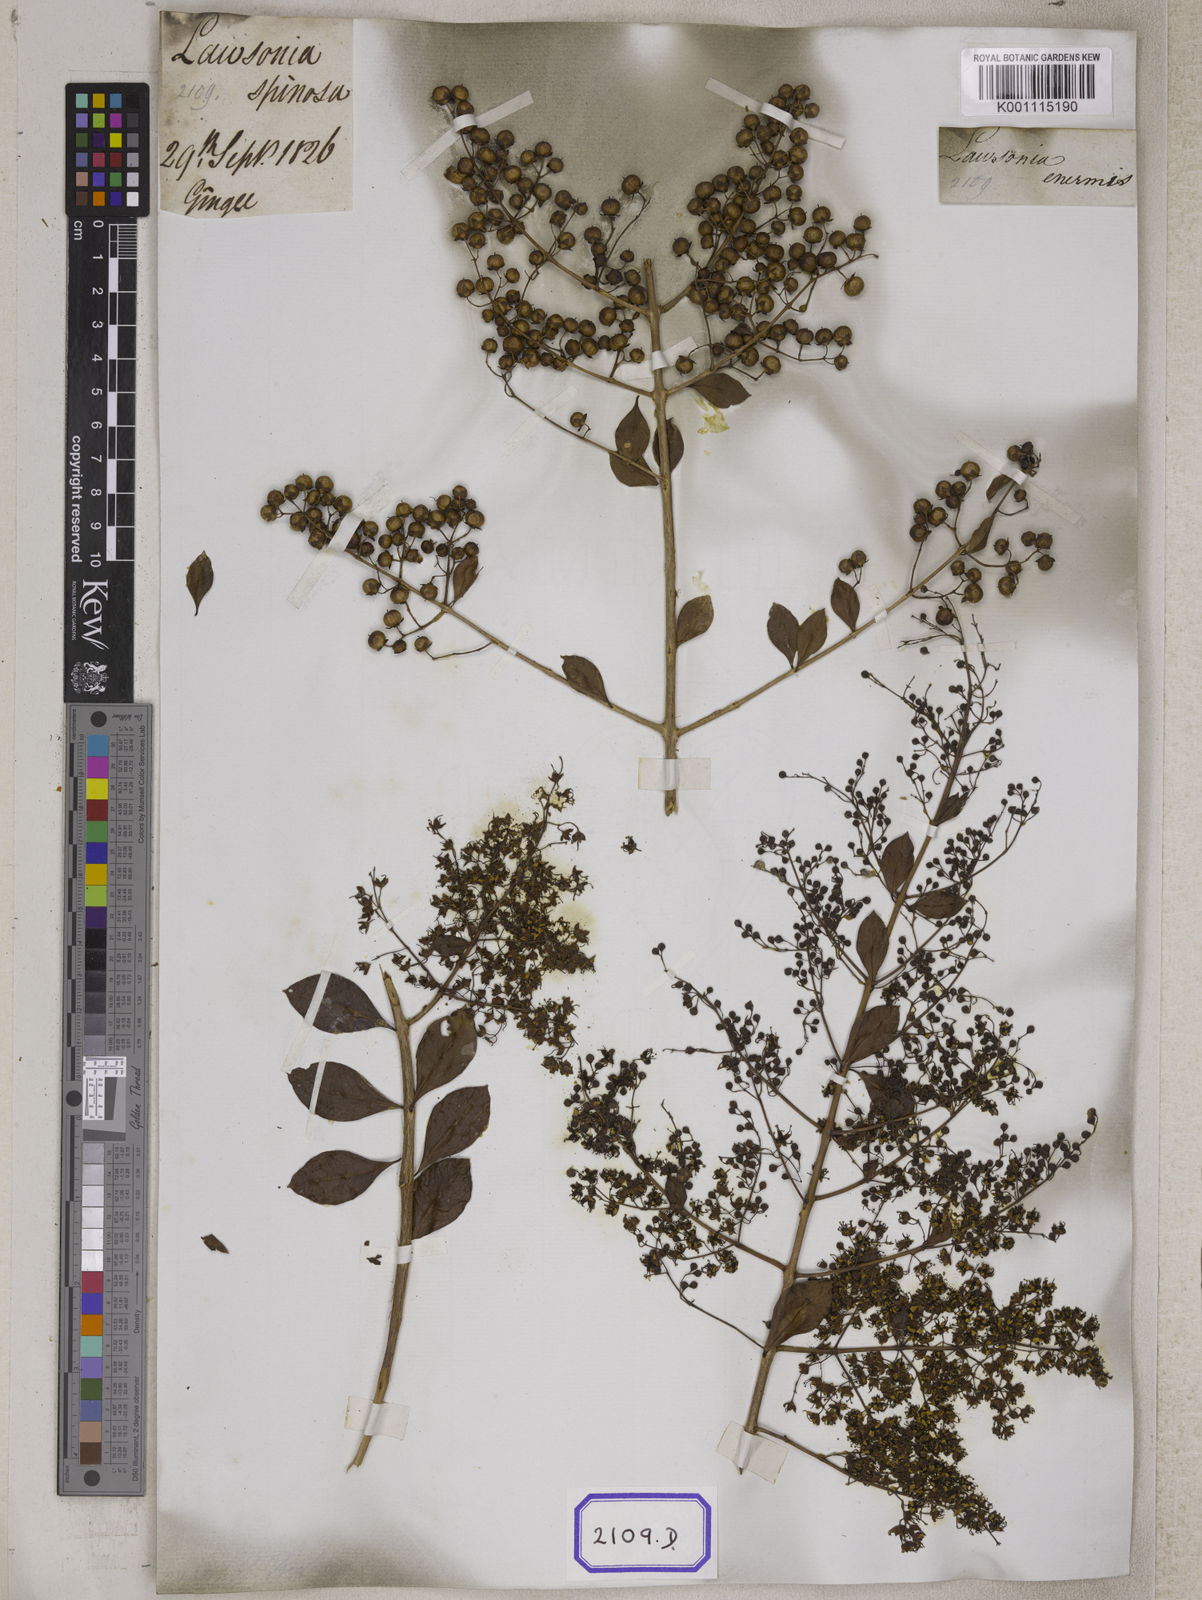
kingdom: Plantae
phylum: Tracheophyta
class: Magnoliopsida
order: Myrtales
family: Lythraceae
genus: Lawsonia
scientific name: Lawsonia inermis
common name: Henna
